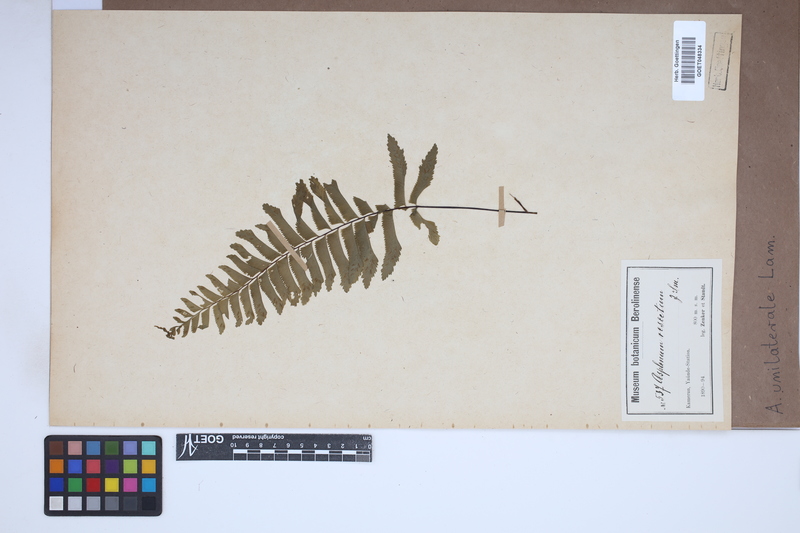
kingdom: Plantae
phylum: Tracheophyta
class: Polypodiopsida
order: Polypodiales
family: Aspleniaceae
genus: Hymenasplenium
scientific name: Hymenasplenium unilaterale
